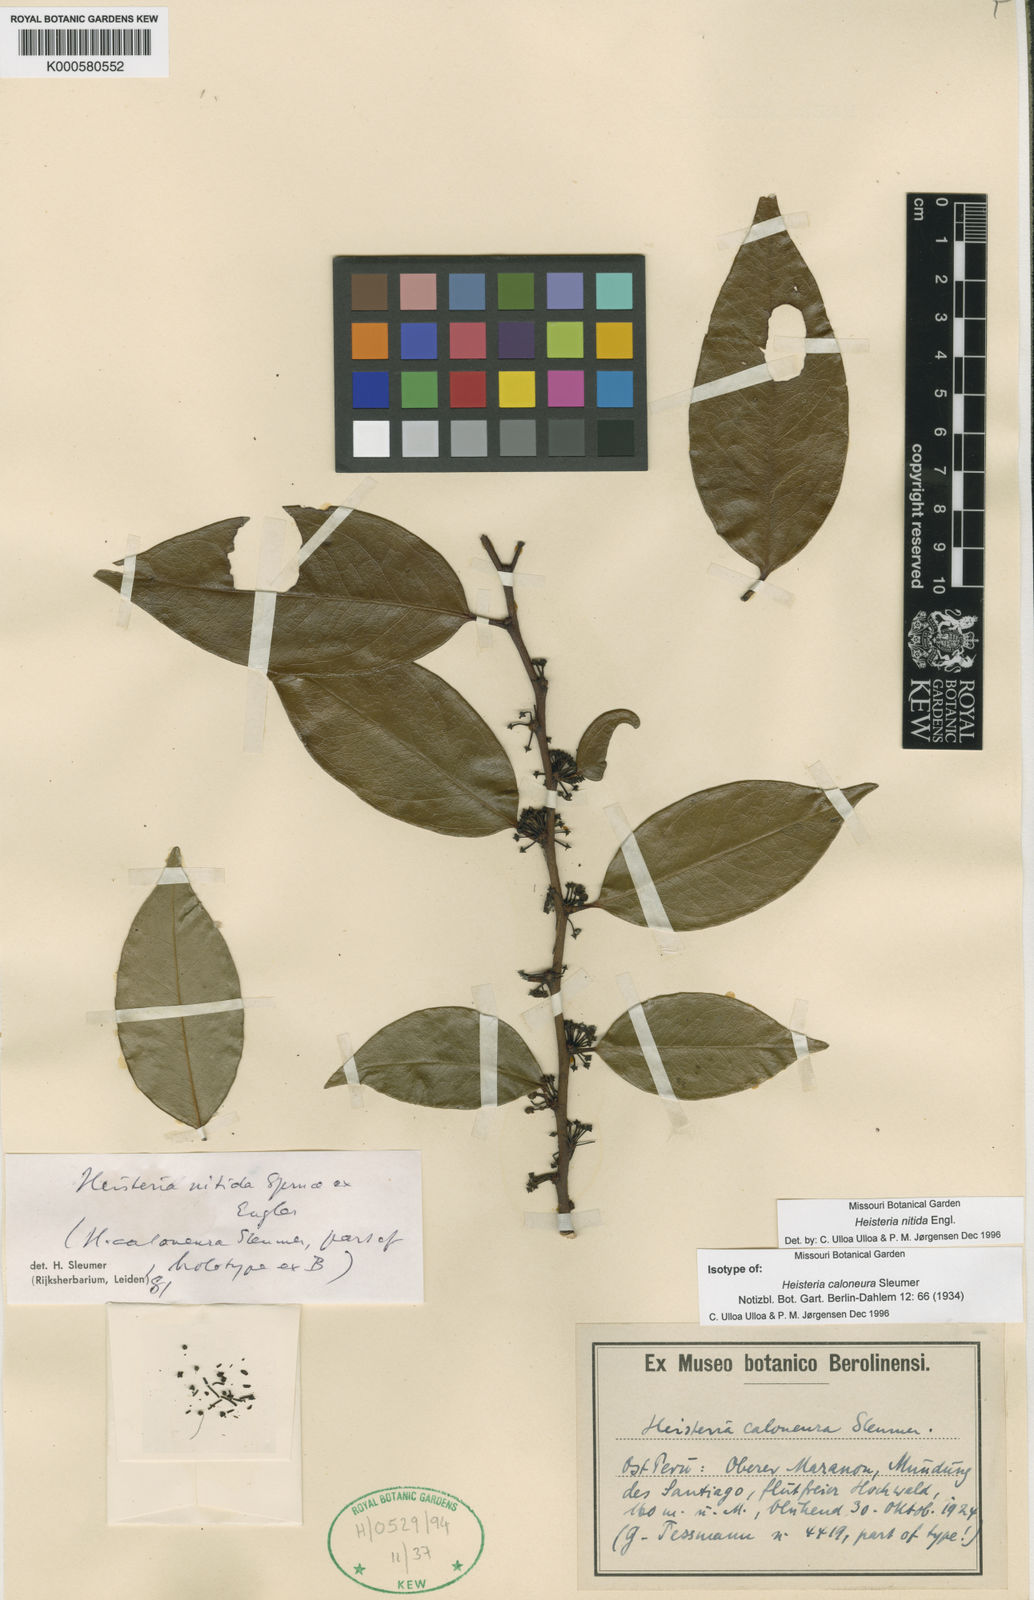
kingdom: Plantae
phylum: Tracheophyta
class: Magnoliopsida
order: Santalales
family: Erythropalaceae
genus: Heisteria
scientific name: Heisteria nitida
